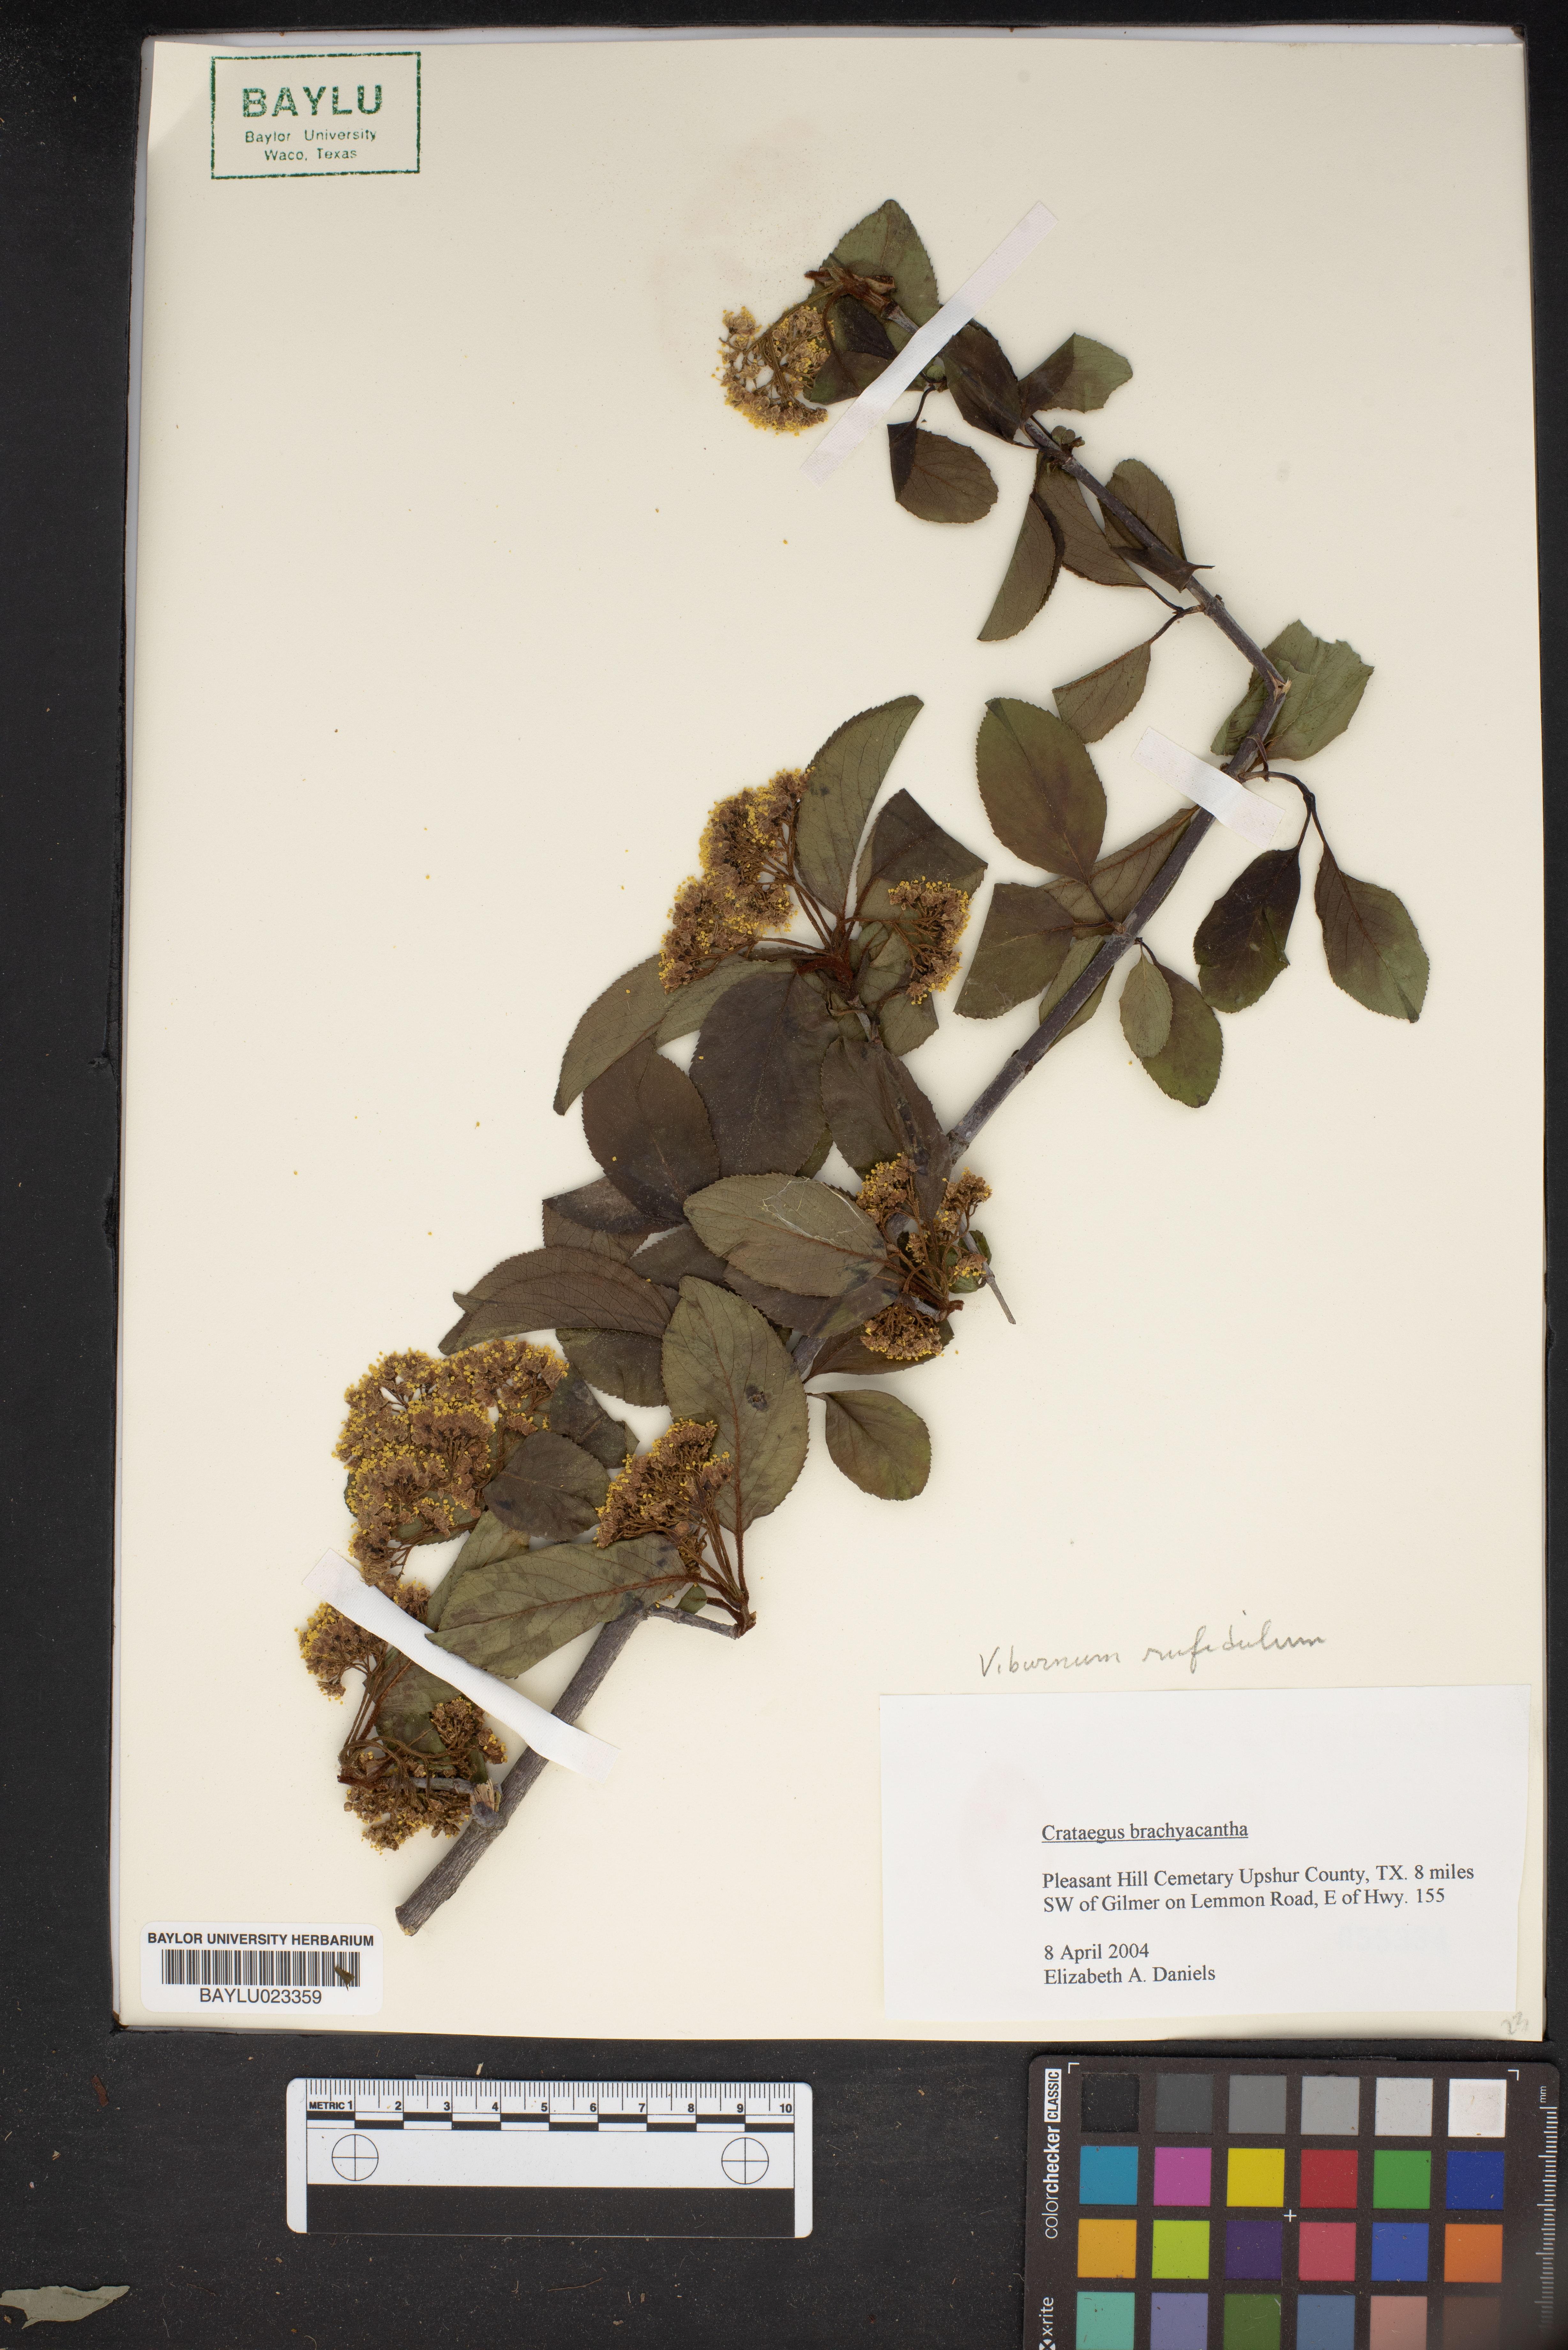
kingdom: Plantae
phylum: Tracheophyta
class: Magnoliopsida
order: Rosales
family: Rosaceae
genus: Crataegus
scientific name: Crataegus brachyacantha
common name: Blueberry-hawthorn
